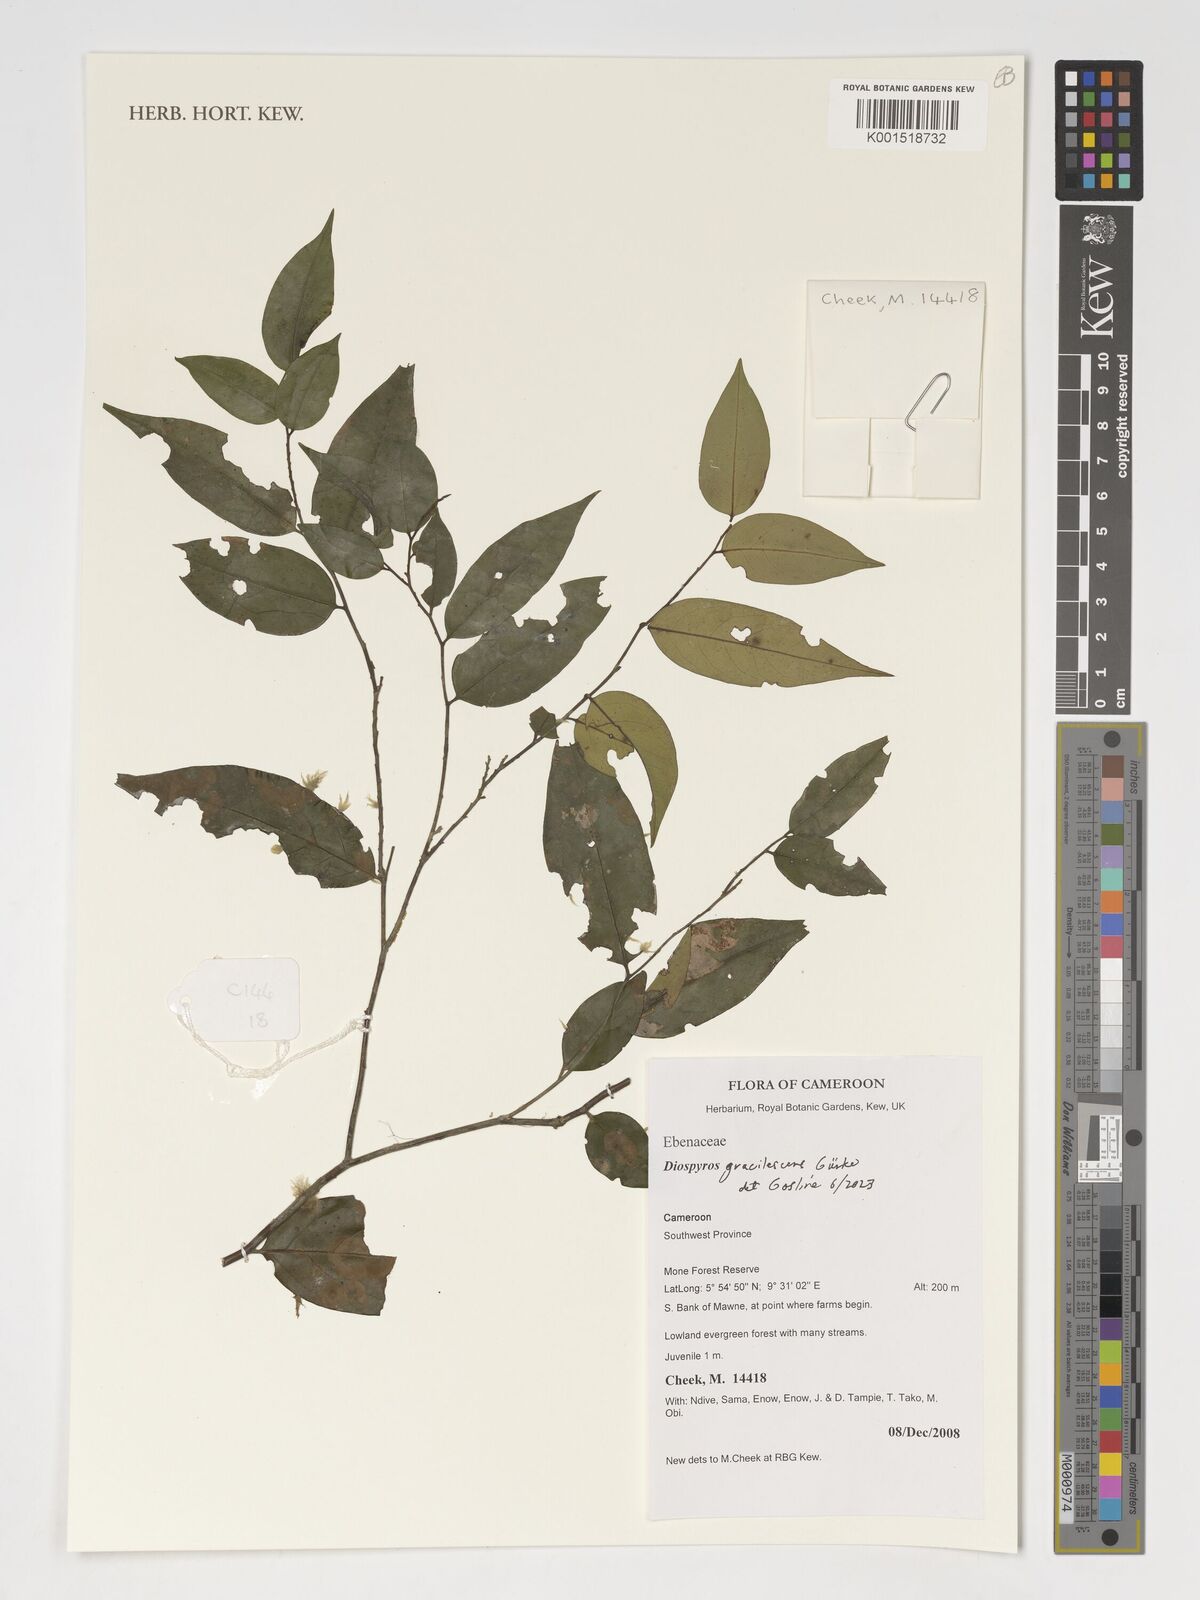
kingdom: Plantae
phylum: Tracheophyta
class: Magnoliopsida
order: Ericales
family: Ebenaceae
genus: Diospyros
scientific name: Diospyros gracilescens
